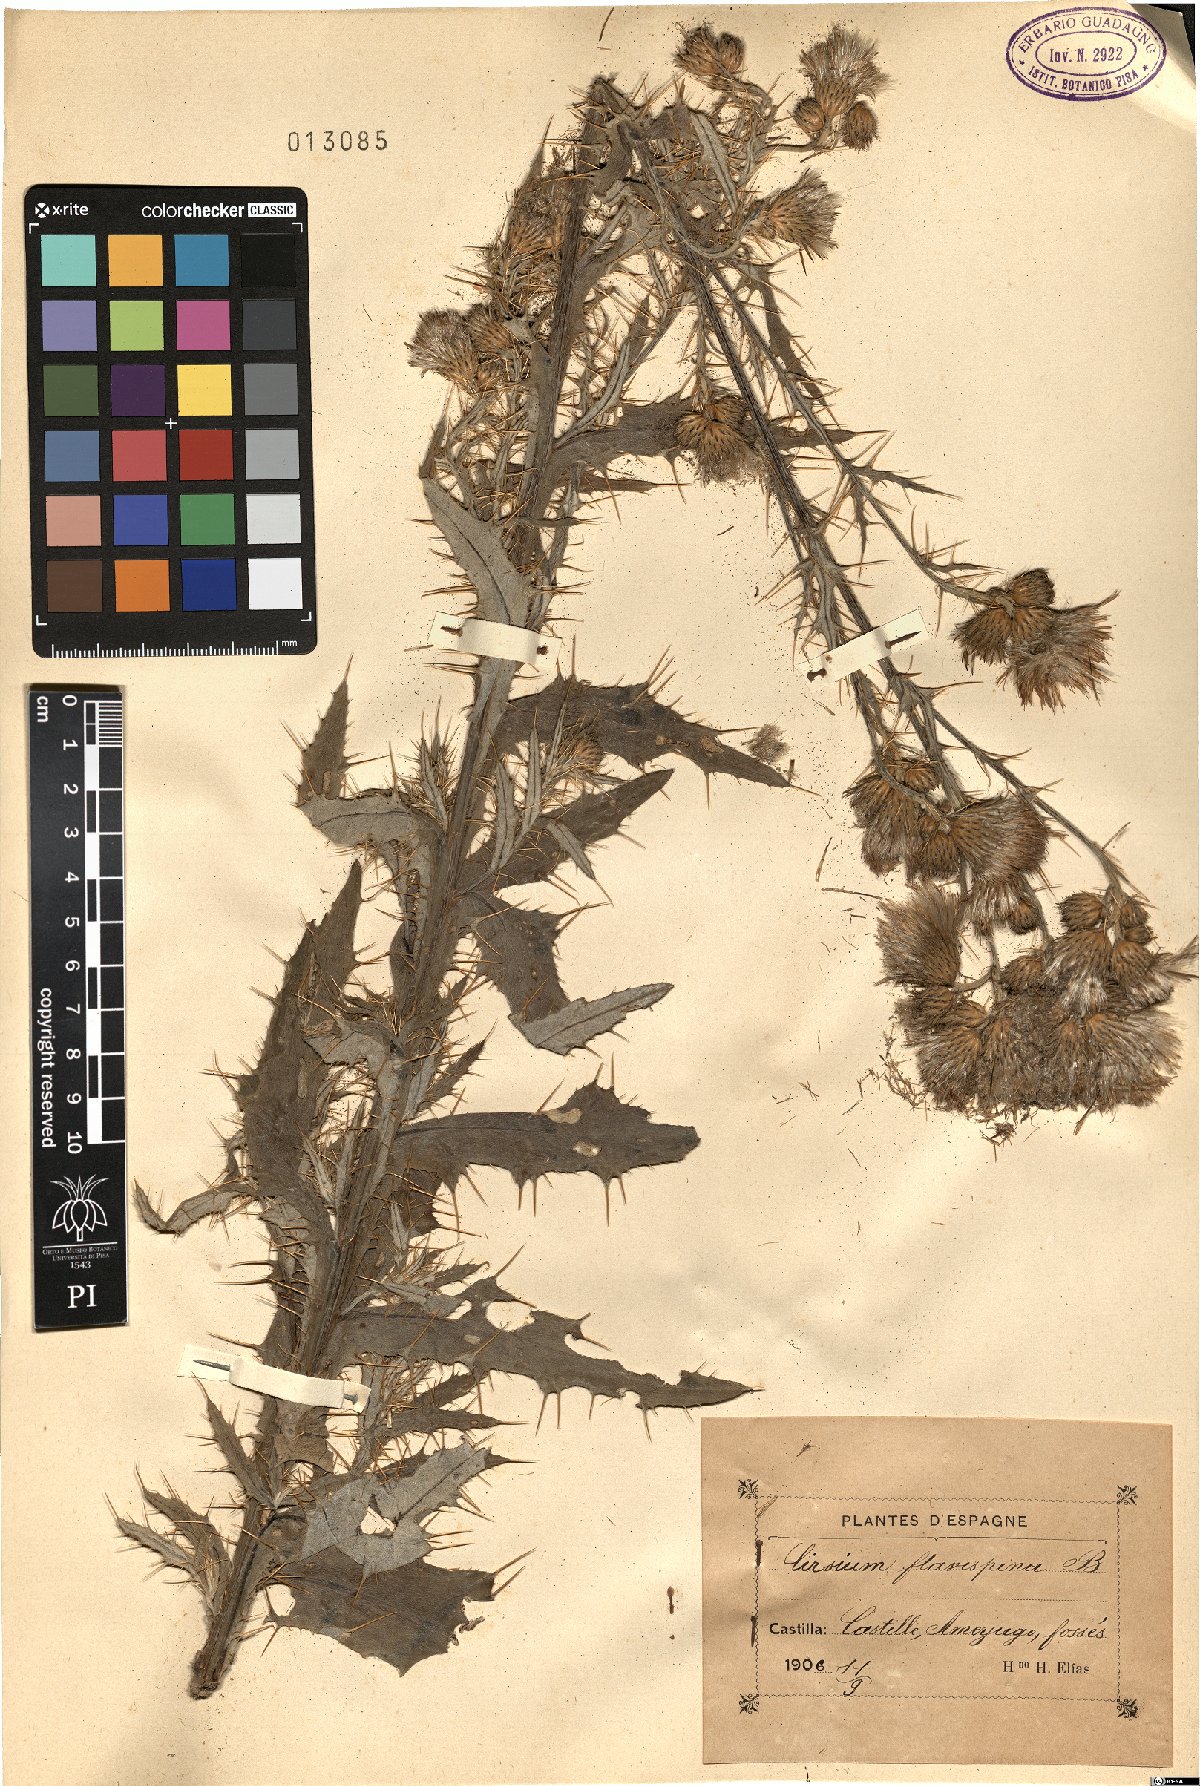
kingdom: Plantae
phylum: Tracheophyta
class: Magnoliopsida
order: Asterales
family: Asteraceae
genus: Cirsium
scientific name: Cirsium pyrenaicum
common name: Pyrenean thistle
